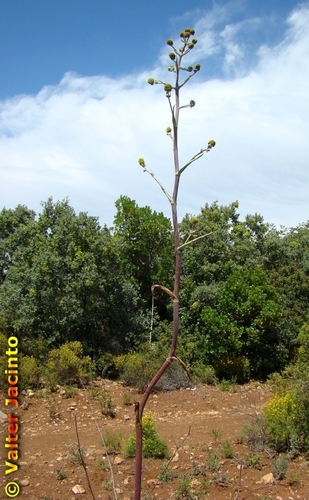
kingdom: Plantae
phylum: Tracheophyta
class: Magnoliopsida
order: Apiales
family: Apiaceae
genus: Ferula
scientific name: Ferula communis
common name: Giant fennel
